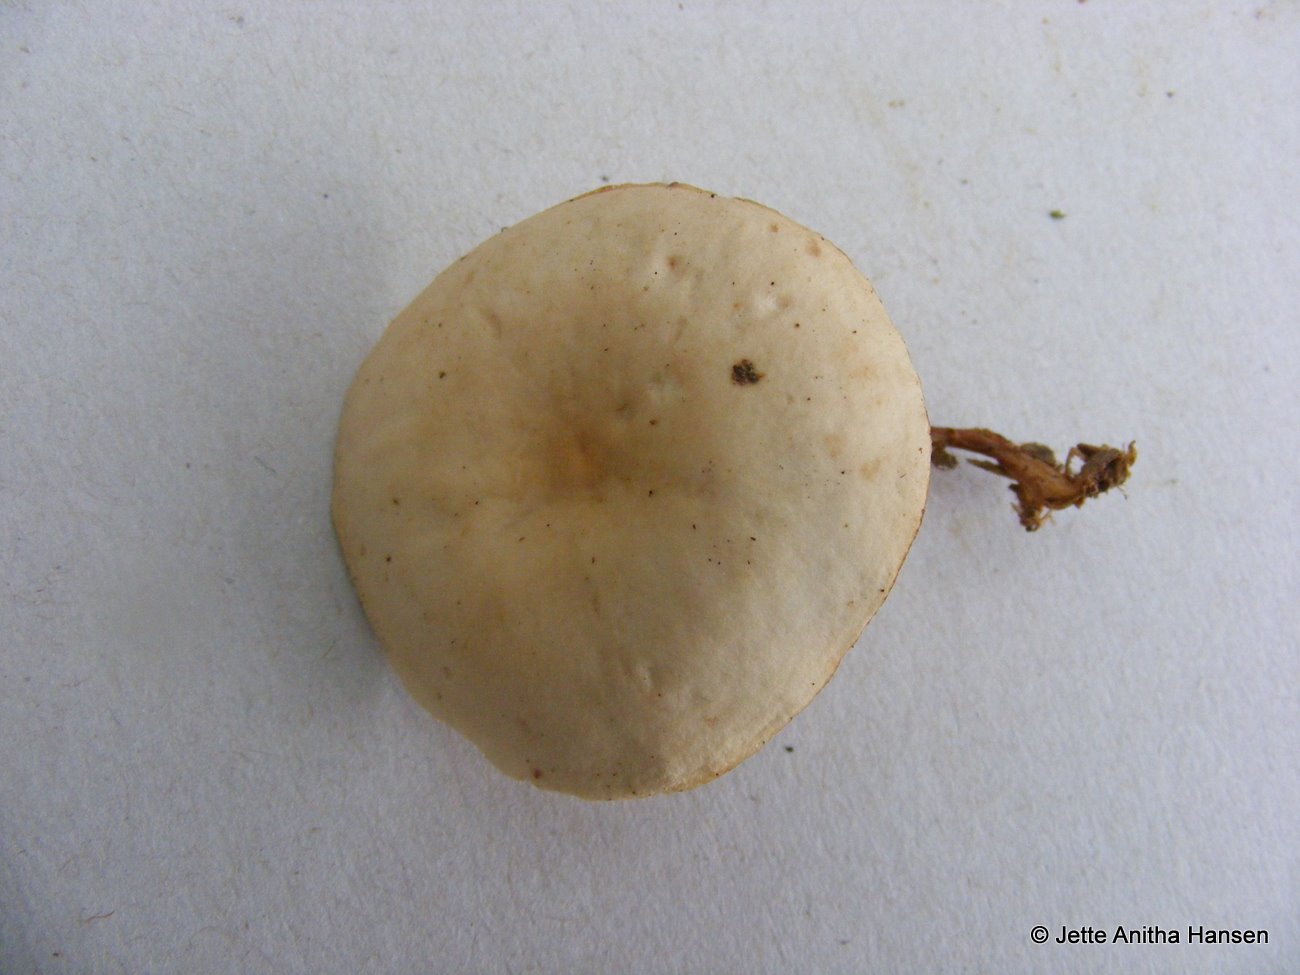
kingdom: Fungi
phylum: Basidiomycota
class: Agaricomycetes
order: Agaricales
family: Omphalotaceae
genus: Gymnopus
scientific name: Gymnopus dryophilus
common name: løv-fladhat
